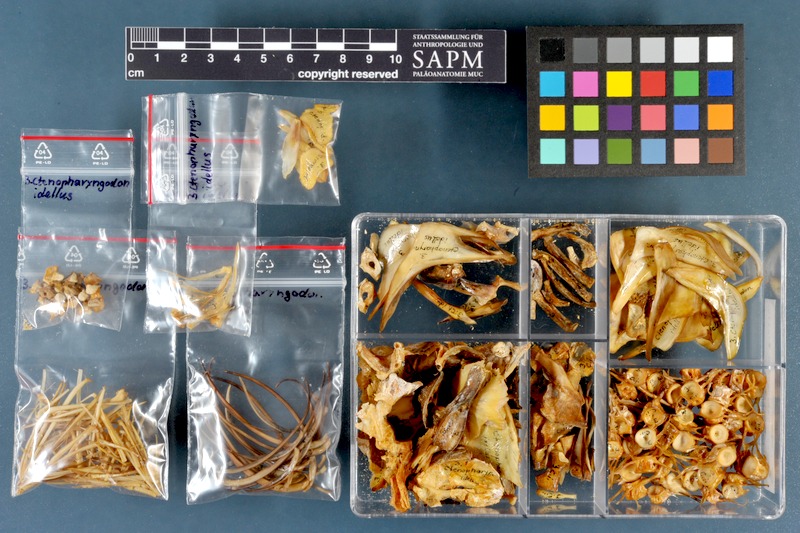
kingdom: Animalia
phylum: Chordata
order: Cypriniformes
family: Cyprinidae
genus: Ctenopharyngodon
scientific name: Ctenopharyngodon idella
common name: Grass carp
